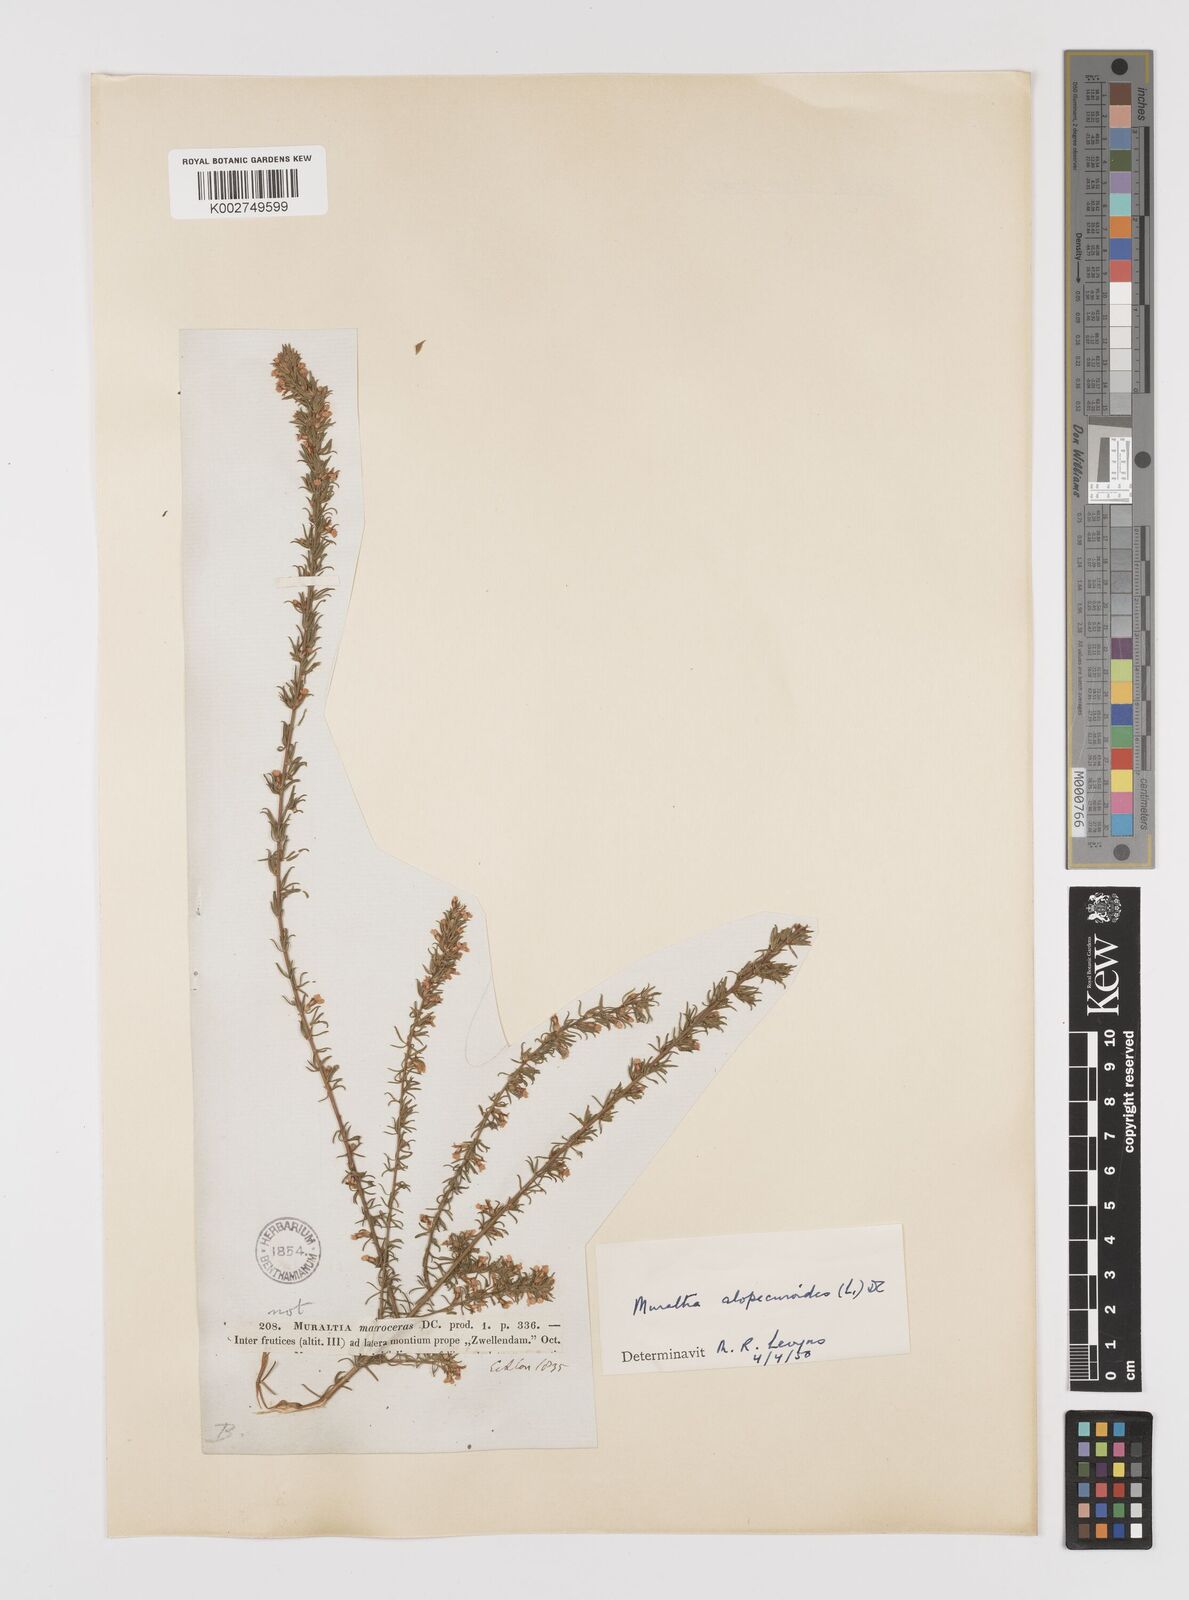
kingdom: Plantae
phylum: Tracheophyta
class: Magnoliopsida
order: Fabales
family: Polygalaceae
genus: Muraltia
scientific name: Muraltia alopecuroides
